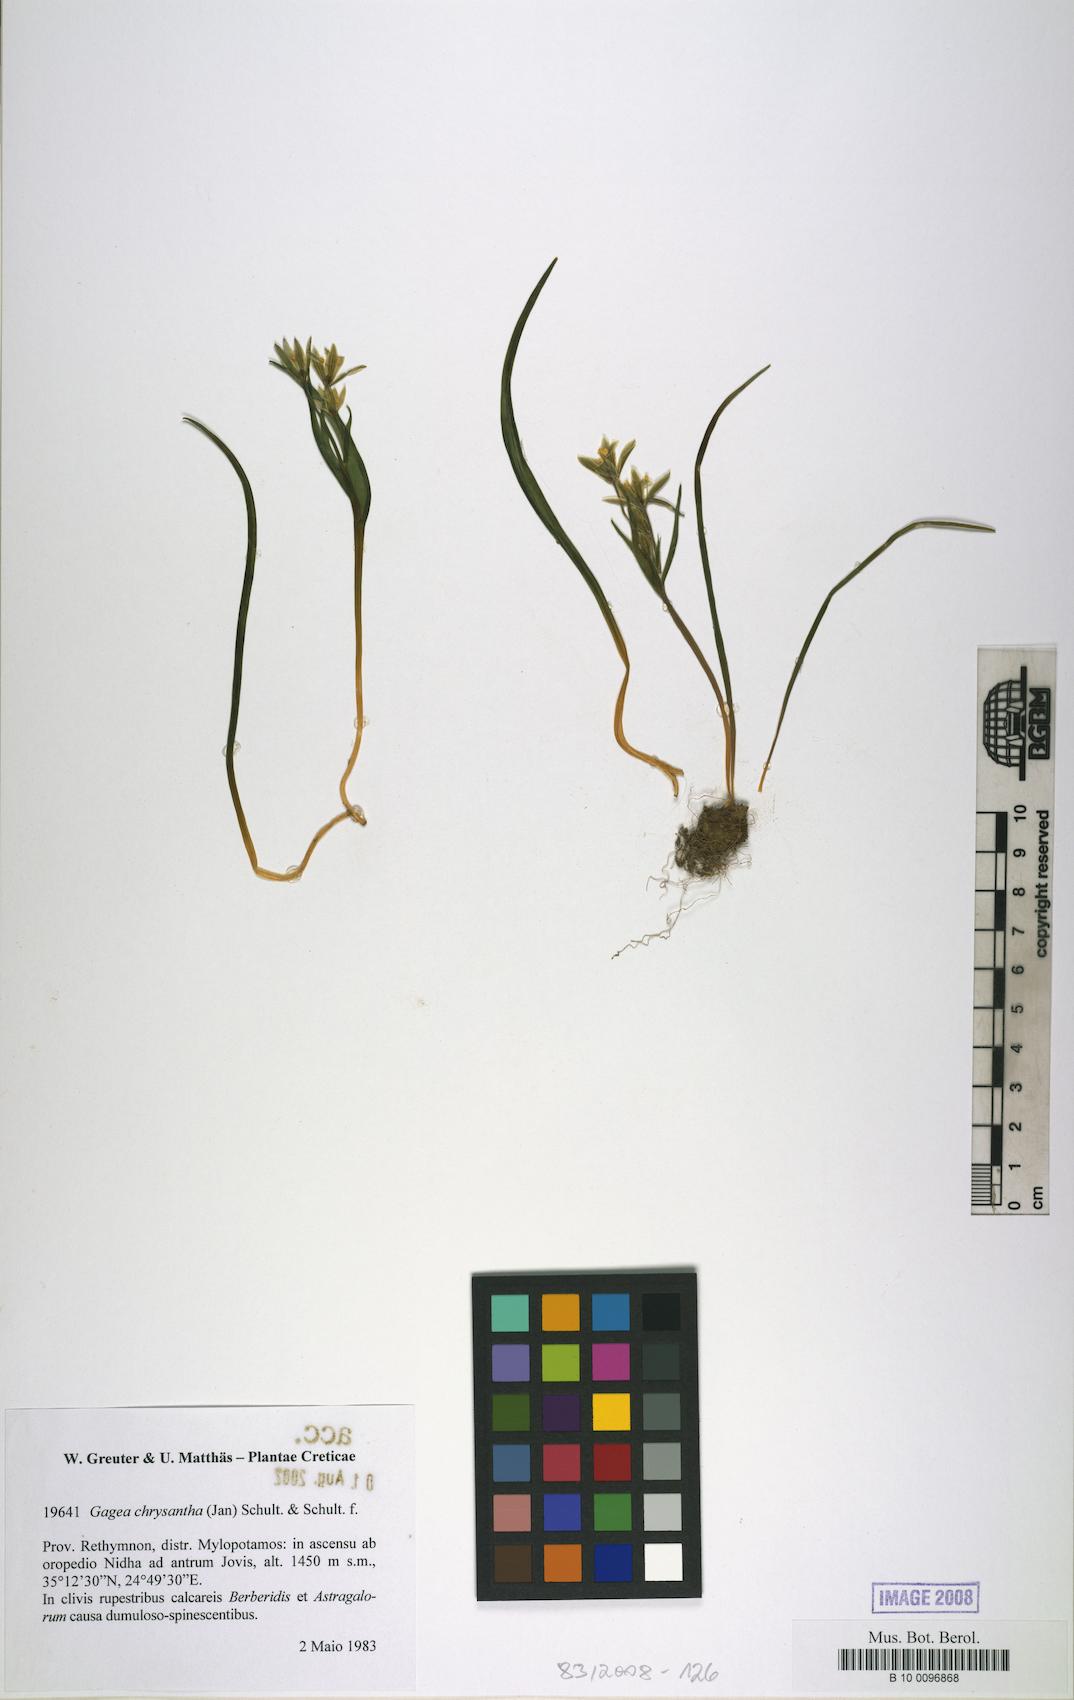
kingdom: Plantae
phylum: Tracheophyta
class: Liliopsida
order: Liliales
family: Liliaceae
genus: Gagea
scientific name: Gagea villosa
